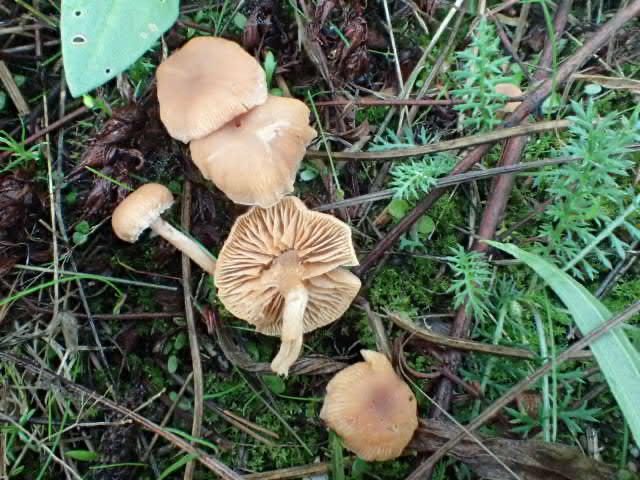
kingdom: Fungi
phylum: Basidiomycota
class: Agaricomycetes
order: Agaricales
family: Tubariaceae
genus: Tubaria
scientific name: Tubaria furfuracea
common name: kliddet fnughat
